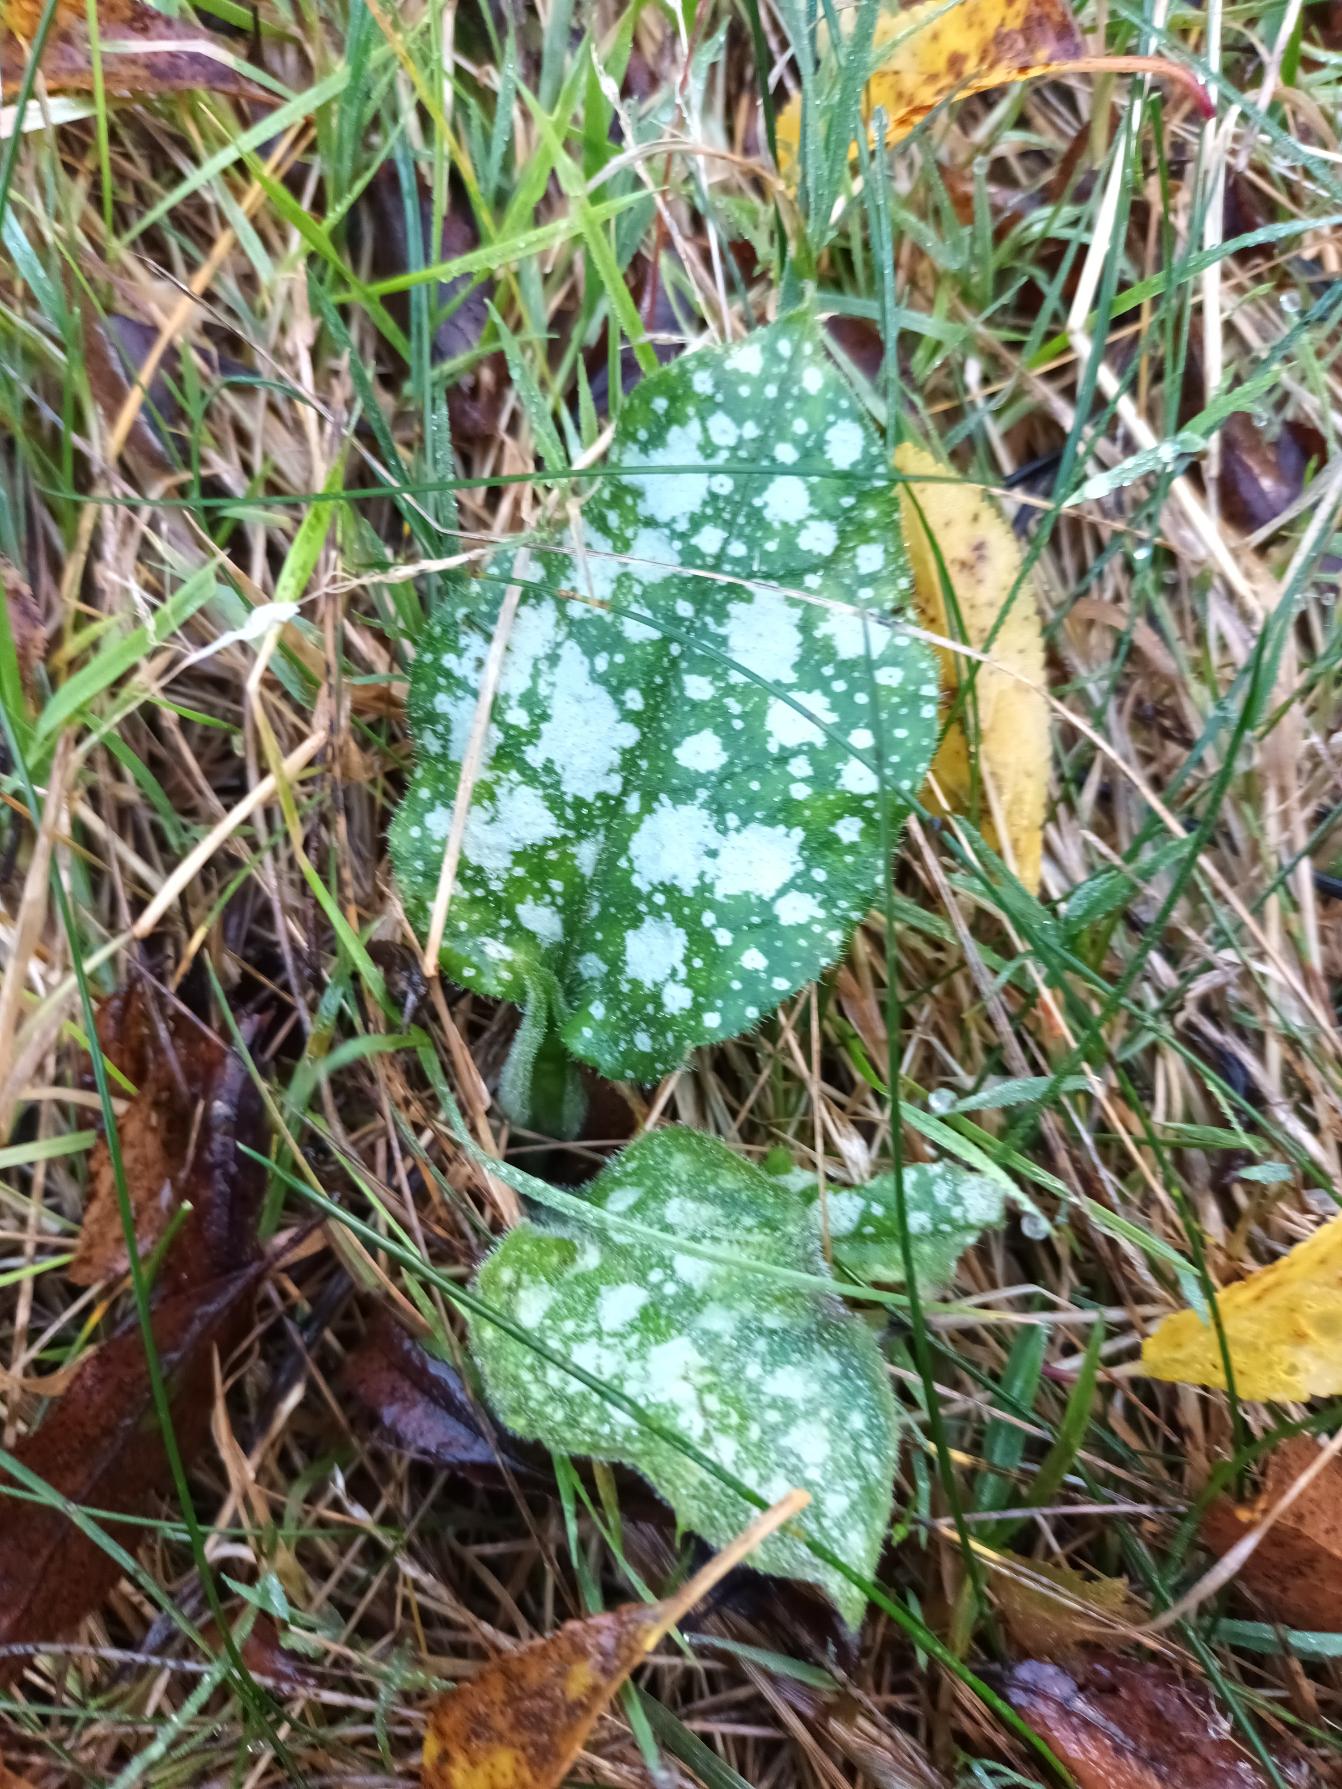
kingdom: Plantae
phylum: Tracheophyta
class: Magnoliopsida
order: Boraginales
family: Boraginaceae
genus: Pulmonaria
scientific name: Pulmonaria officinalis
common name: Hvidplettet lungeurt
